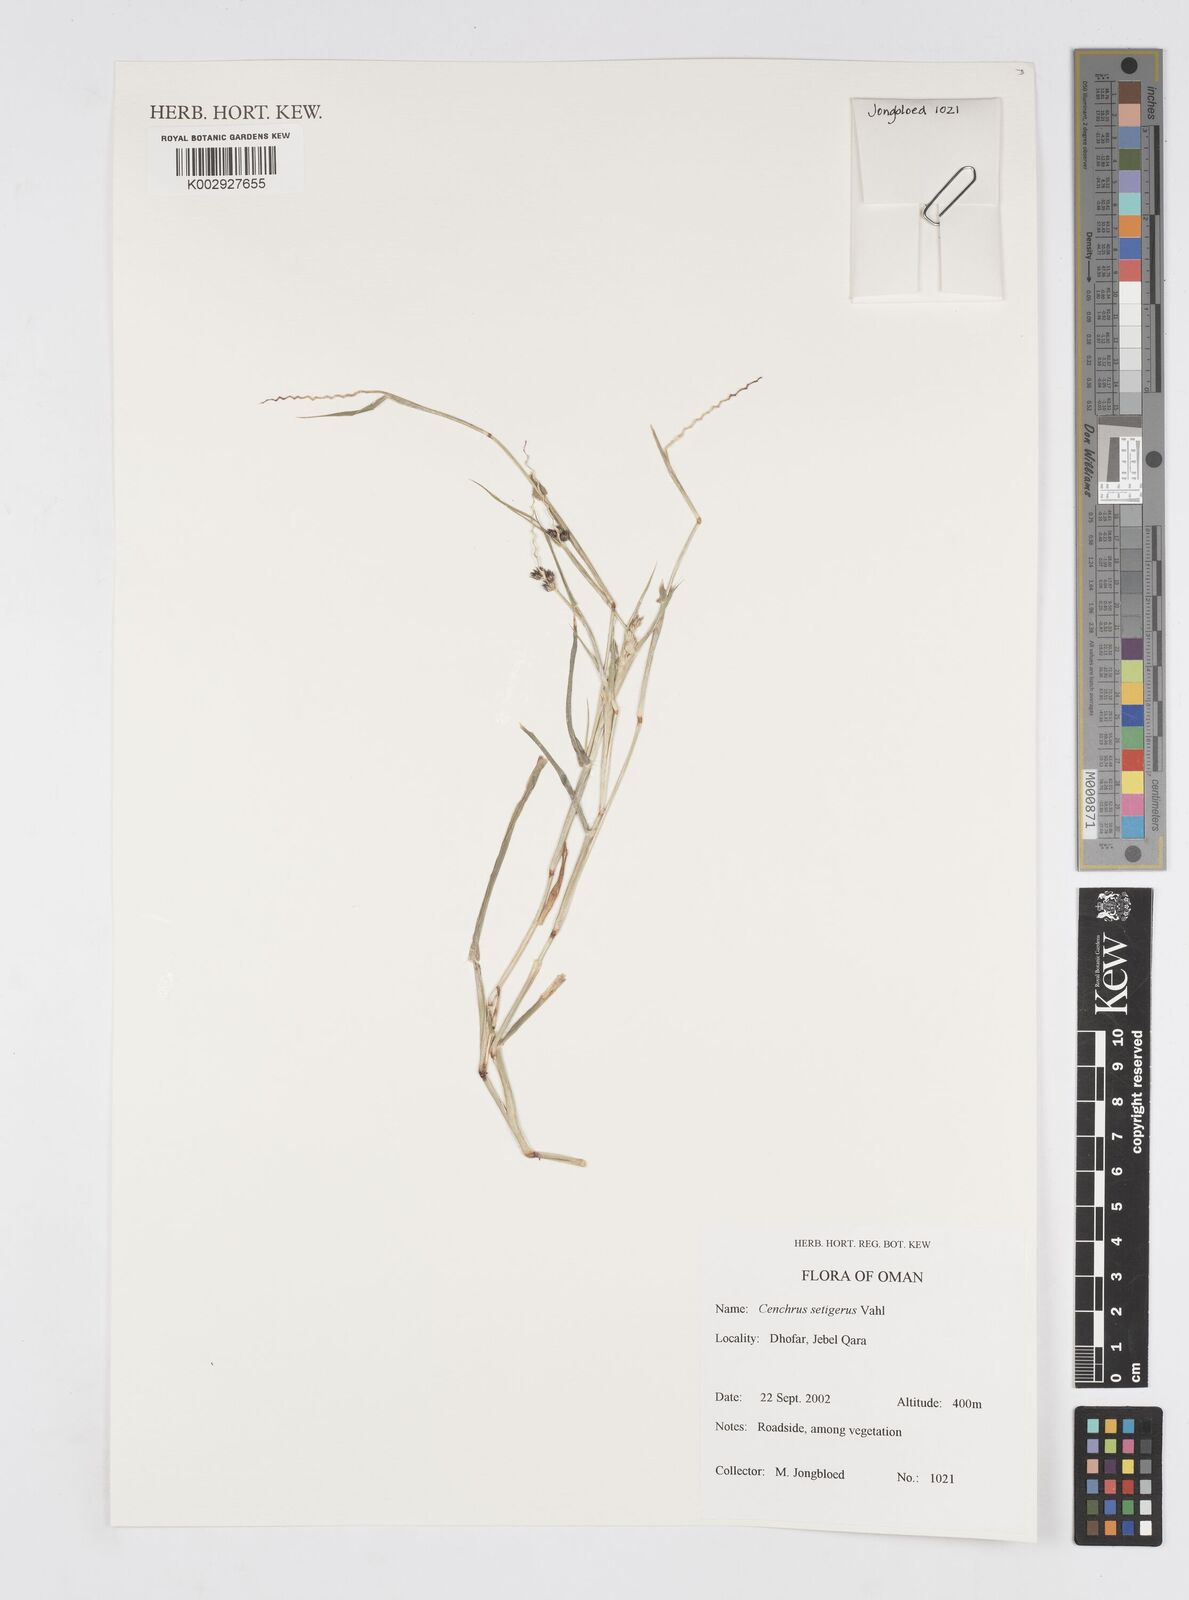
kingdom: Plantae
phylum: Tracheophyta
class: Liliopsida
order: Poales
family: Poaceae
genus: Cenchrus
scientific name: Cenchrus setigerus
